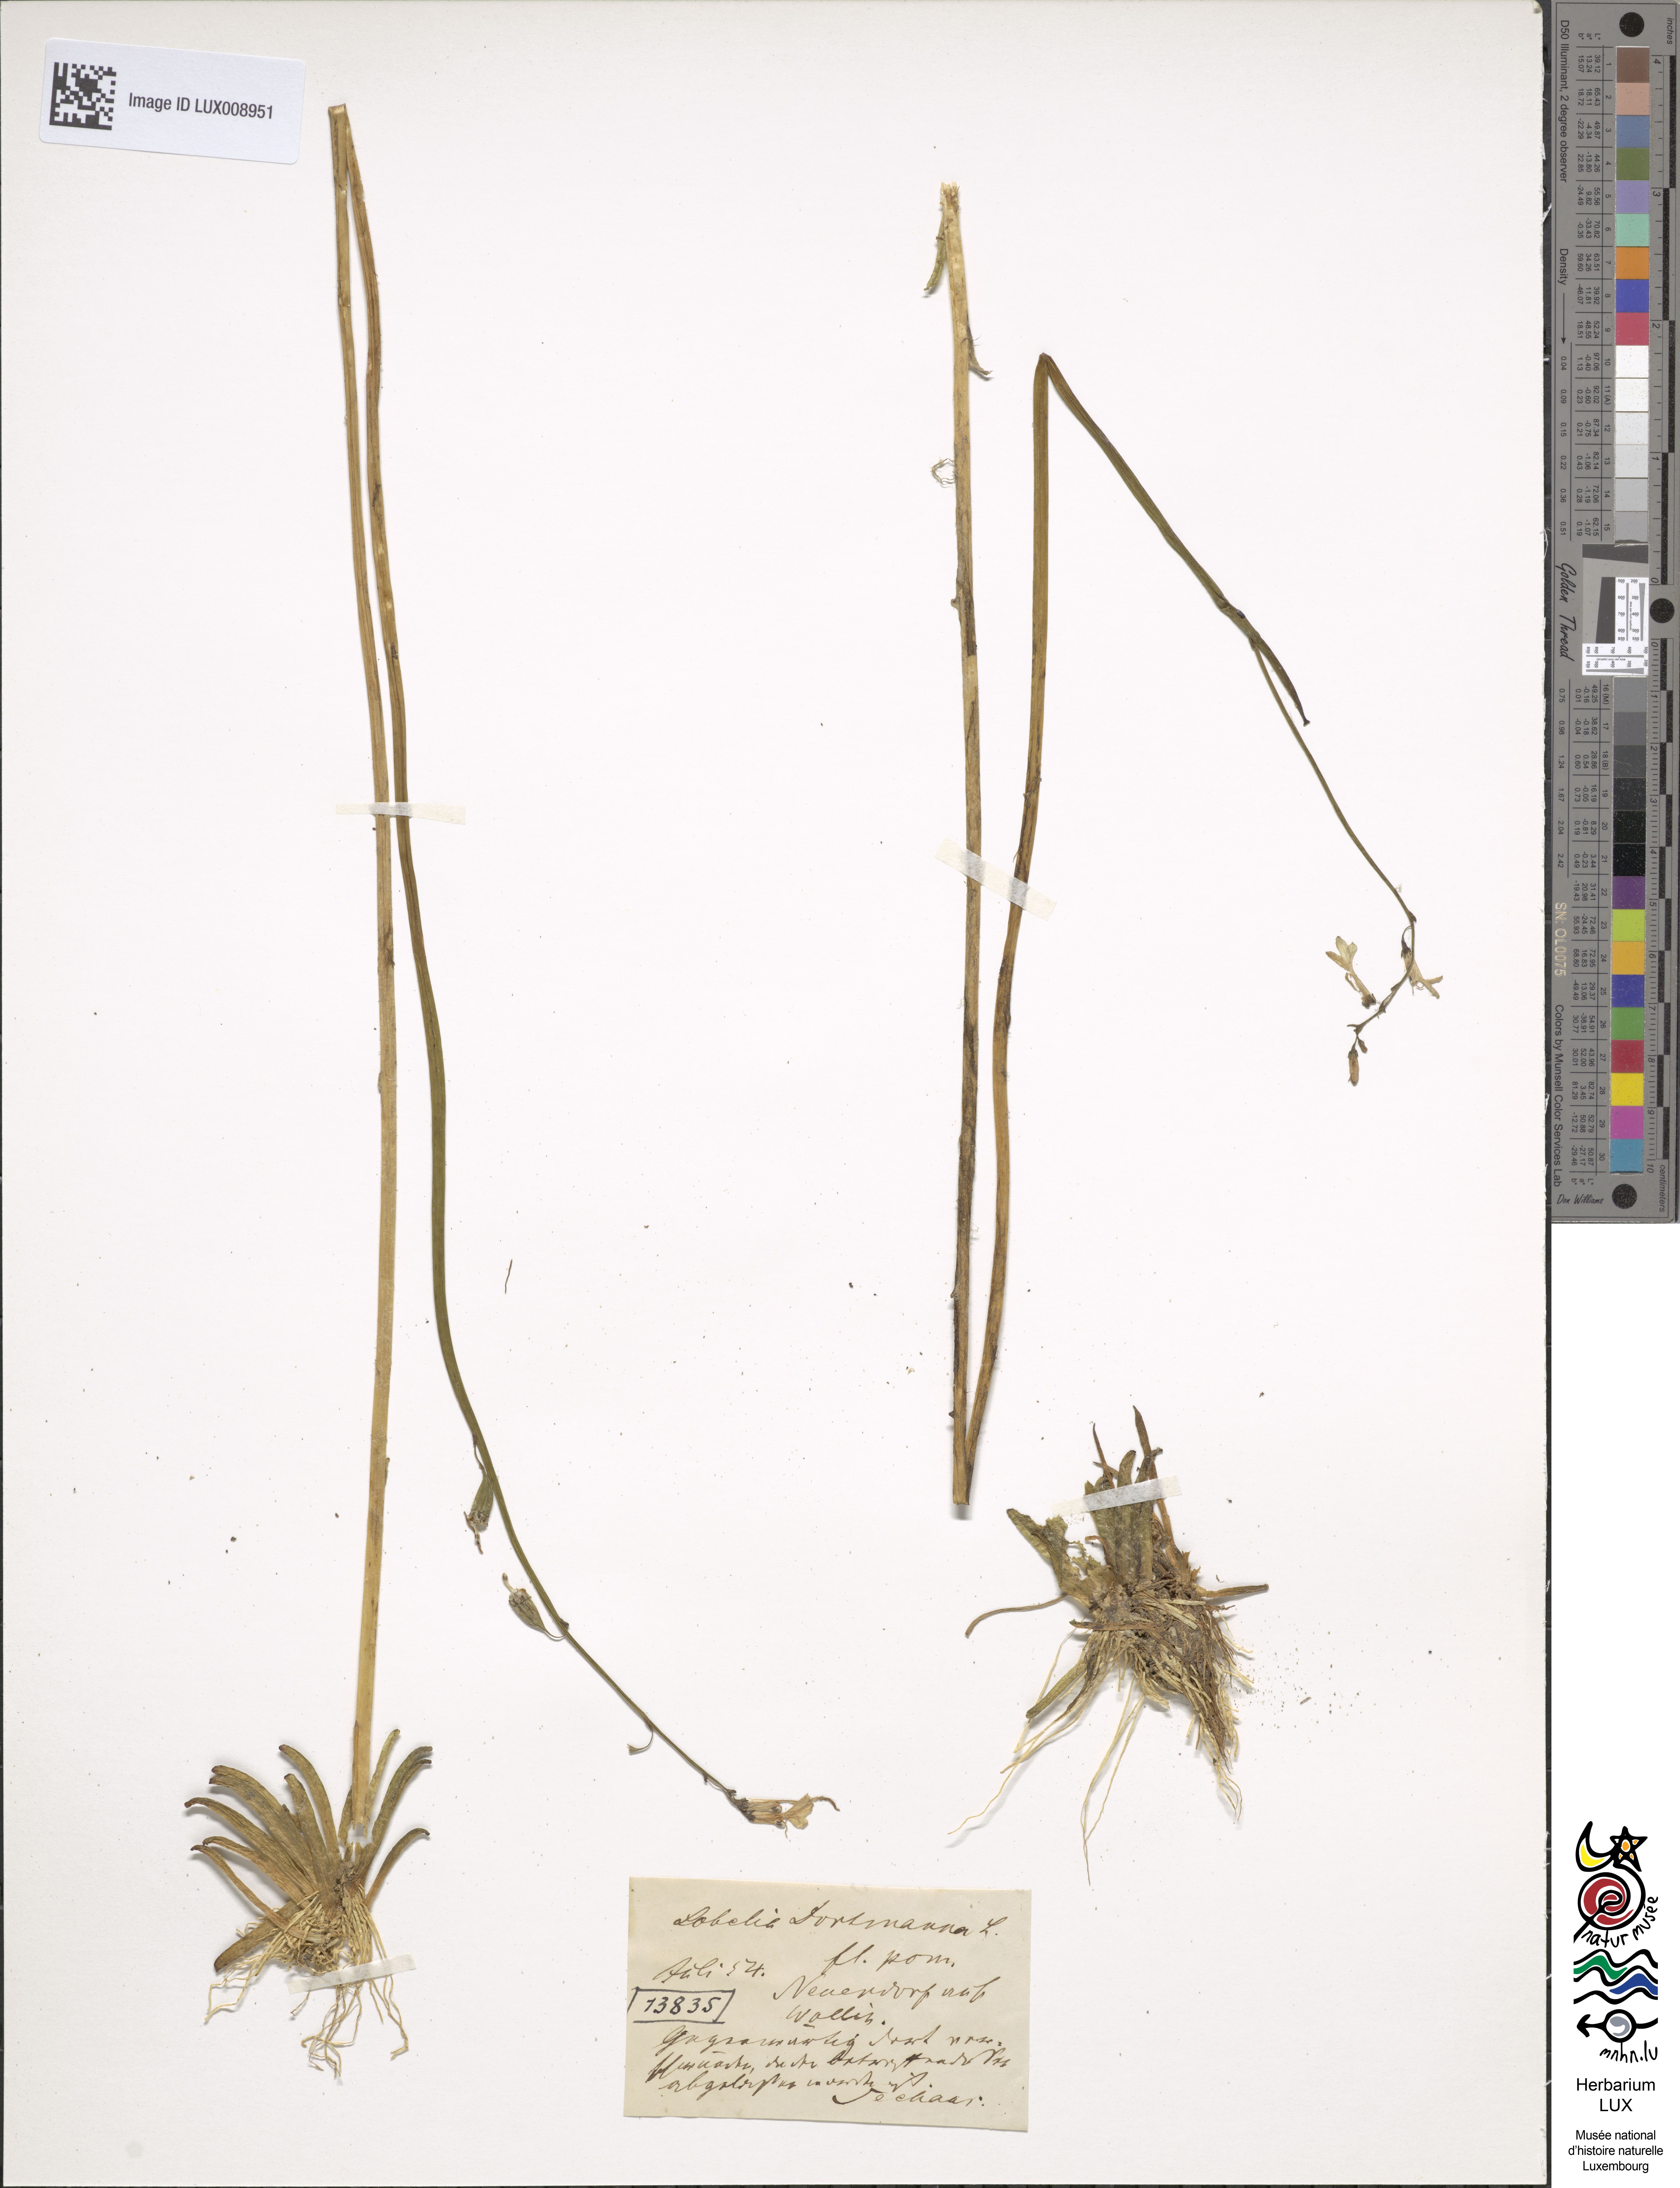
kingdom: Plantae
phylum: Tracheophyta
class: Magnoliopsida
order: Asterales
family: Campanulaceae
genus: Lobelia
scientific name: Lobelia dortmanna
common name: Water lobelia
